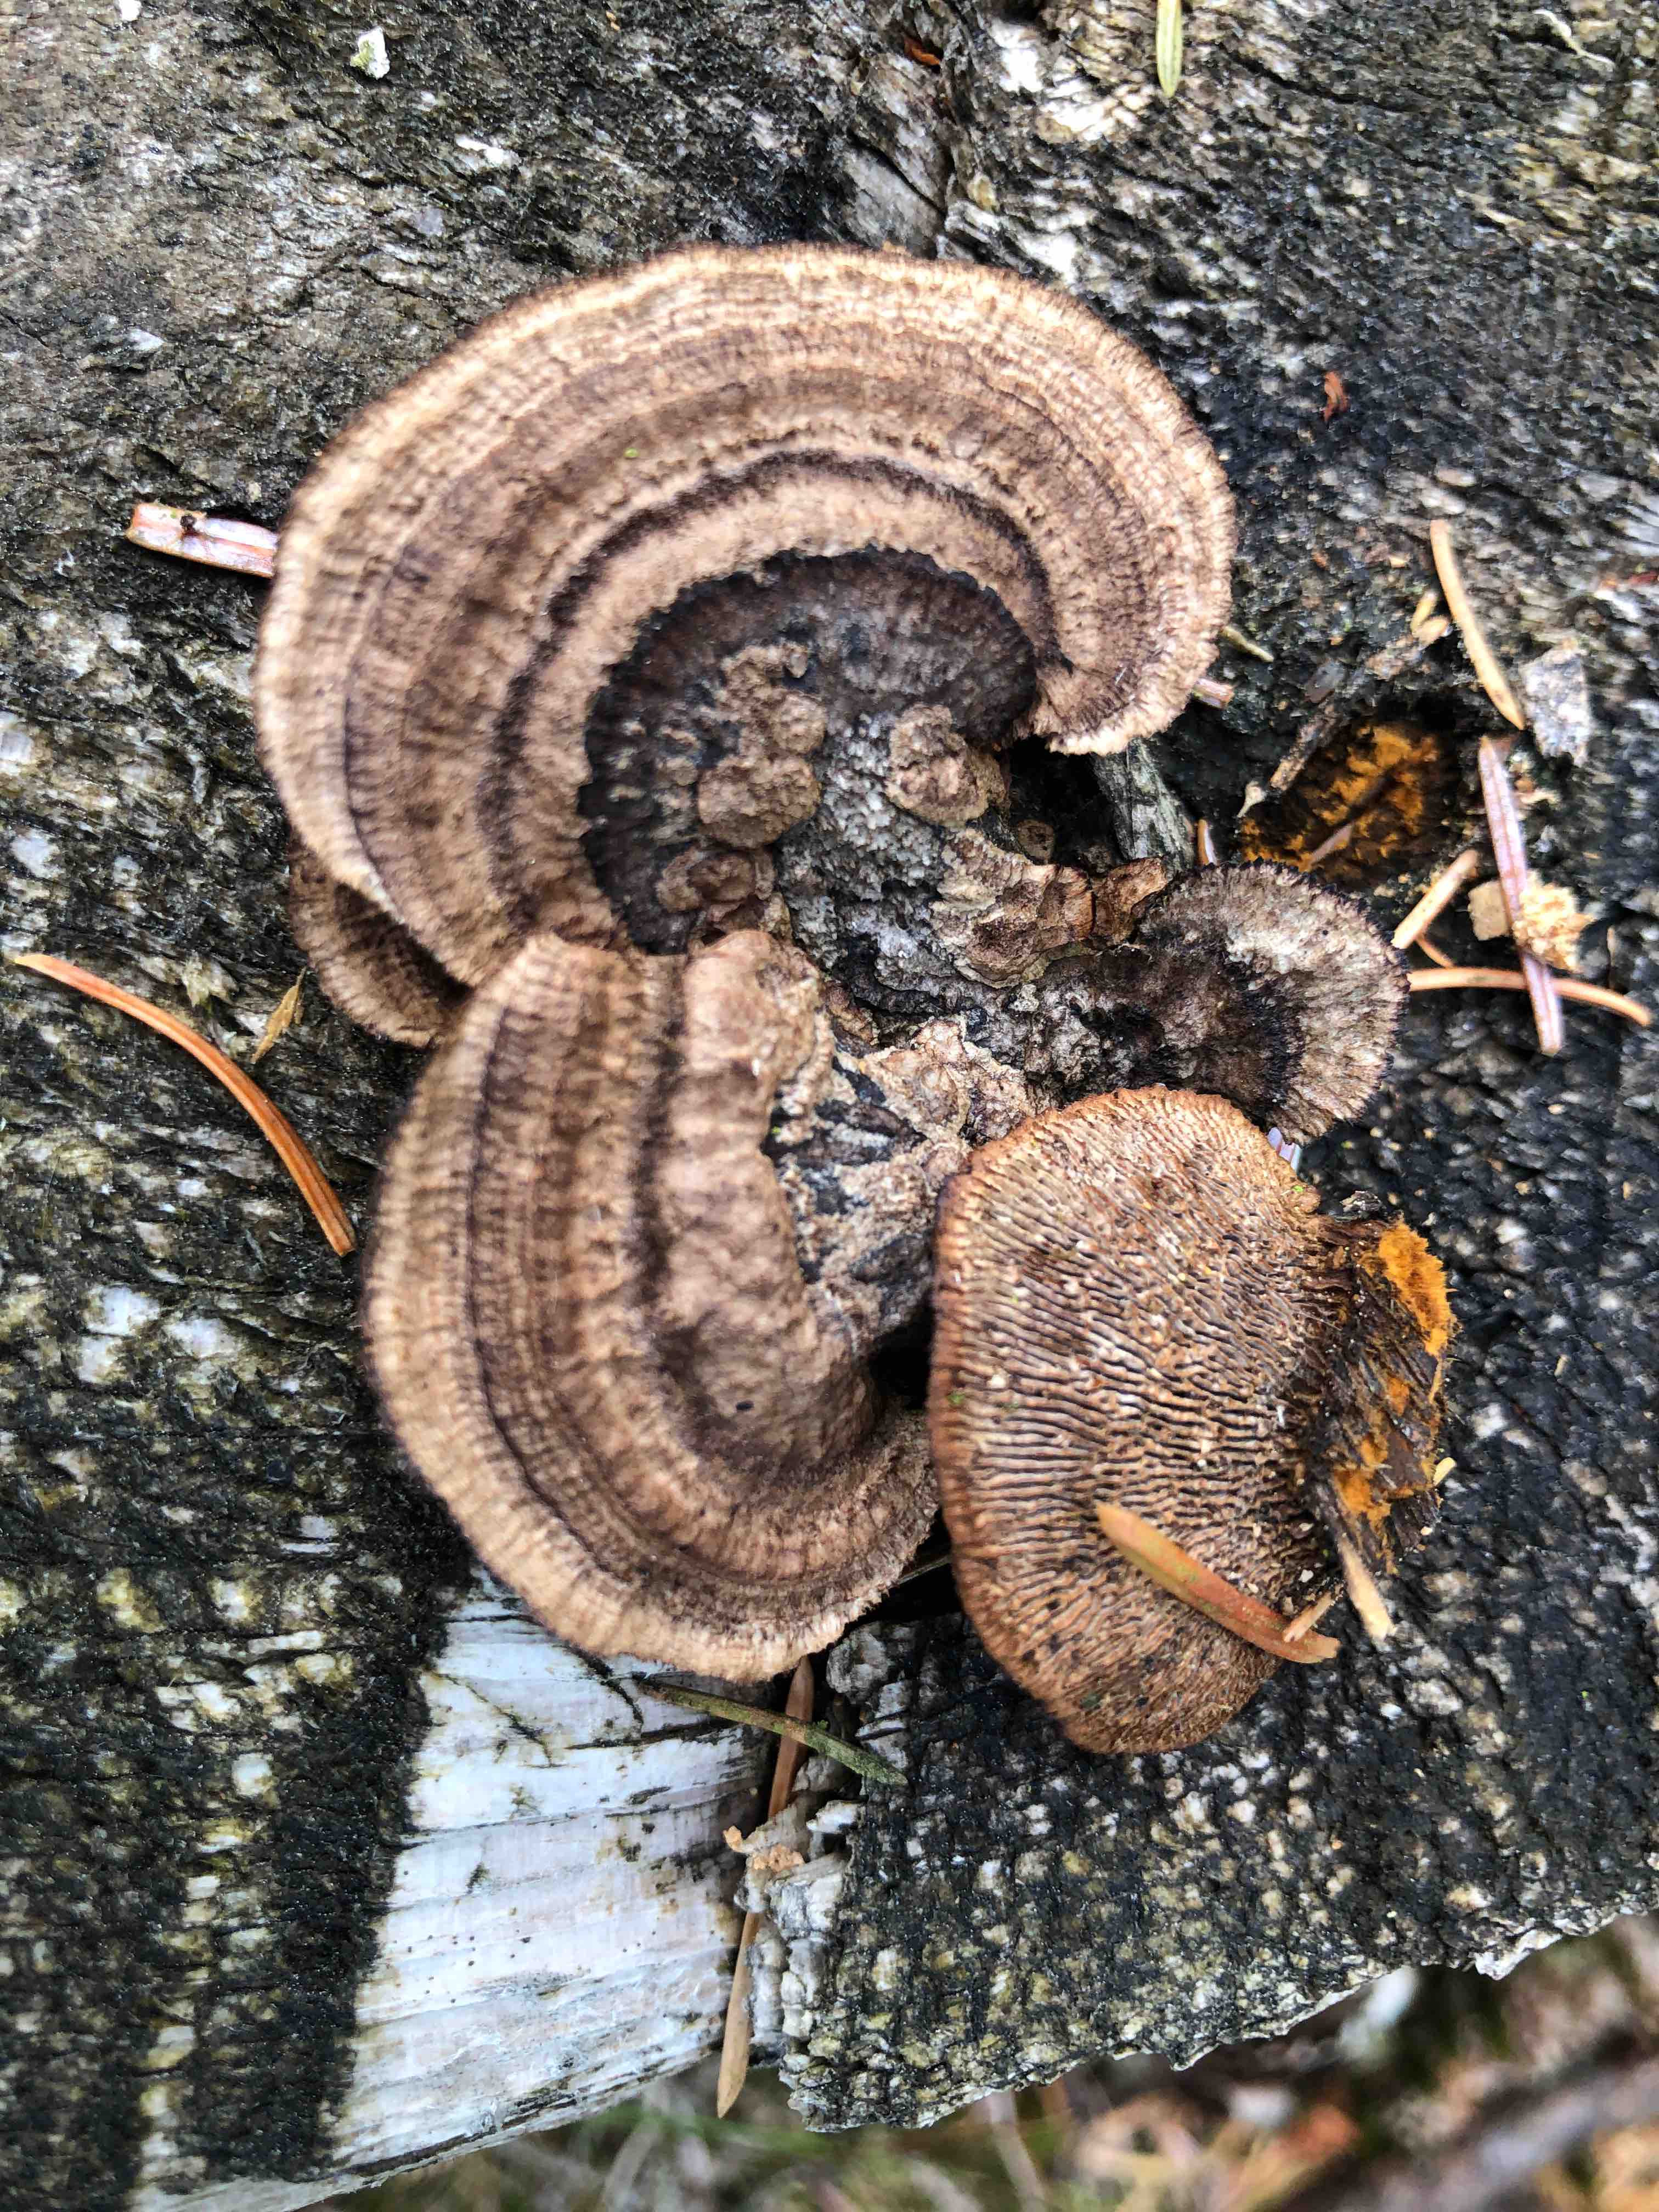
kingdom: Fungi
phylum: Basidiomycota
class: Agaricomycetes
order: Gloeophyllales
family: Gloeophyllaceae
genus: Gloeophyllum
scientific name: Gloeophyllum sepiarium
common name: fyrre-korkhat
